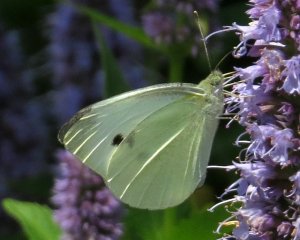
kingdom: Animalia
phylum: Arthropoda
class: Insecta
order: Lepidoptera
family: Pieridae
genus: Pieris
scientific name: Pieris rapae
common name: Cabbage White
